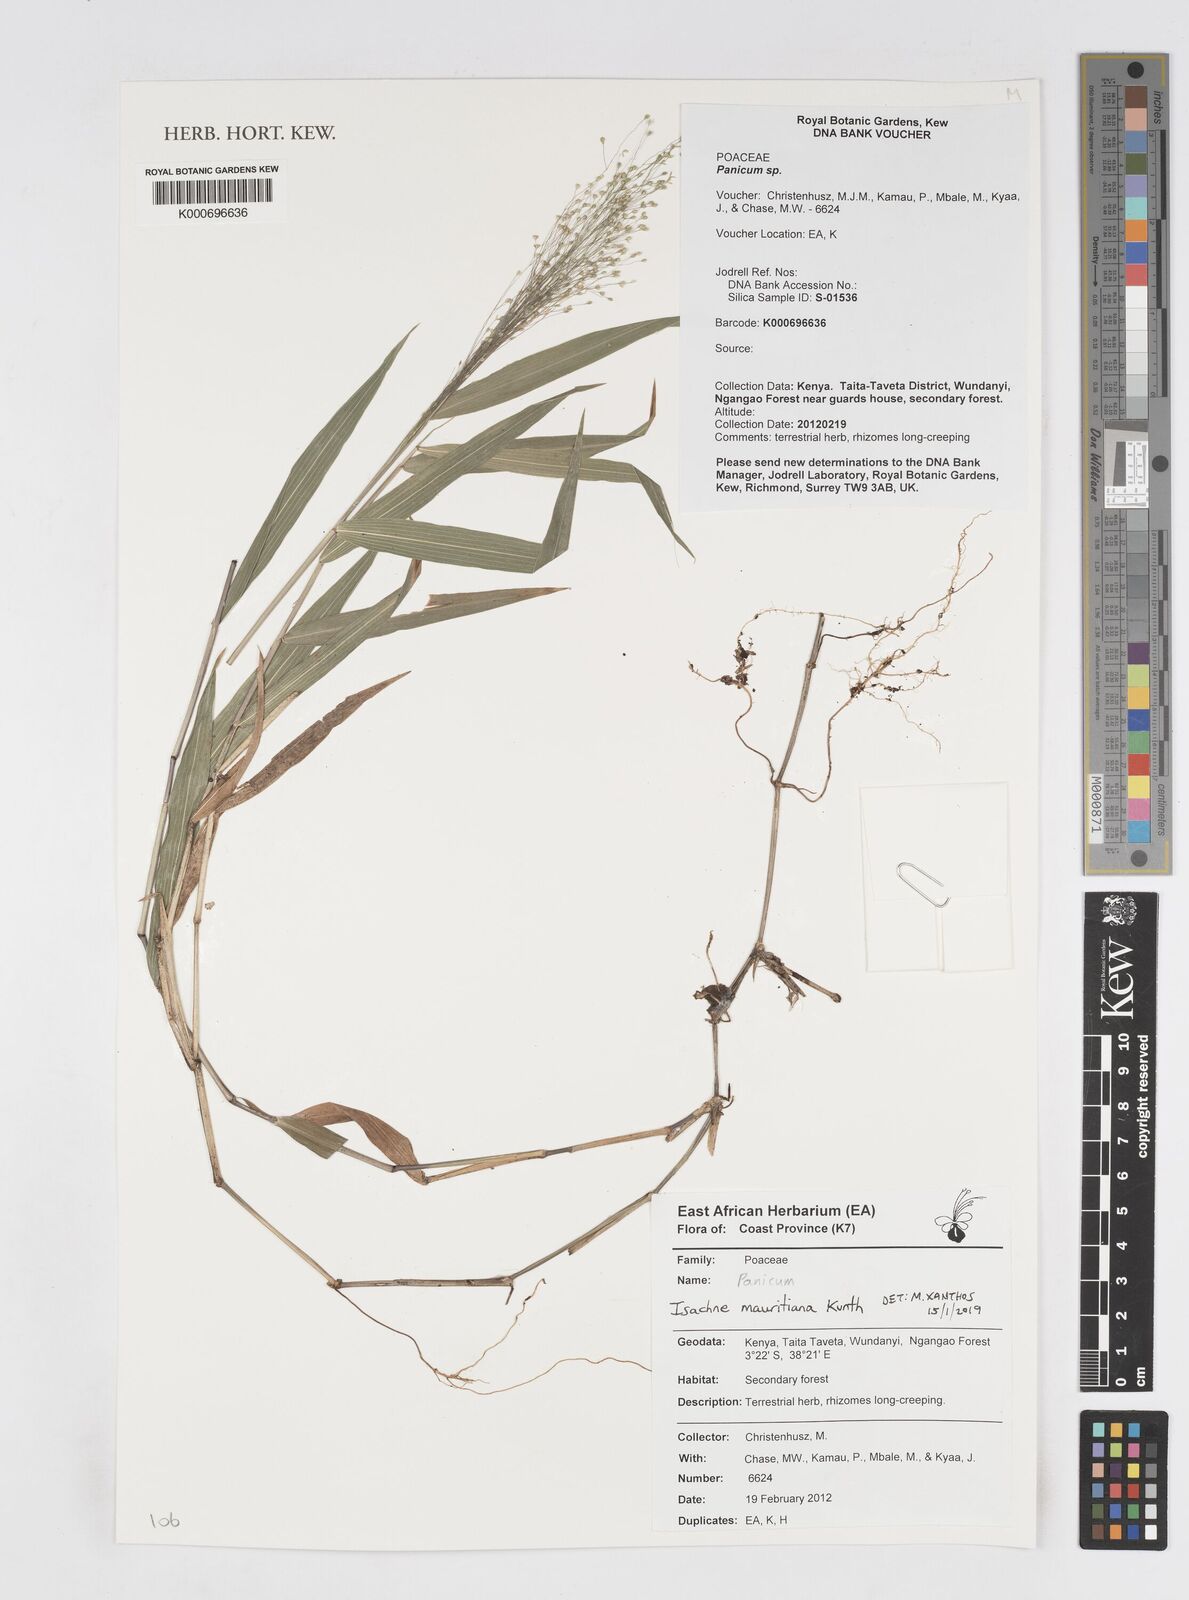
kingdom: Plantae
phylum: Tracheophyta
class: Liliopsida
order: Poales
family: Poaceae
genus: Panicum
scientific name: Panicum
